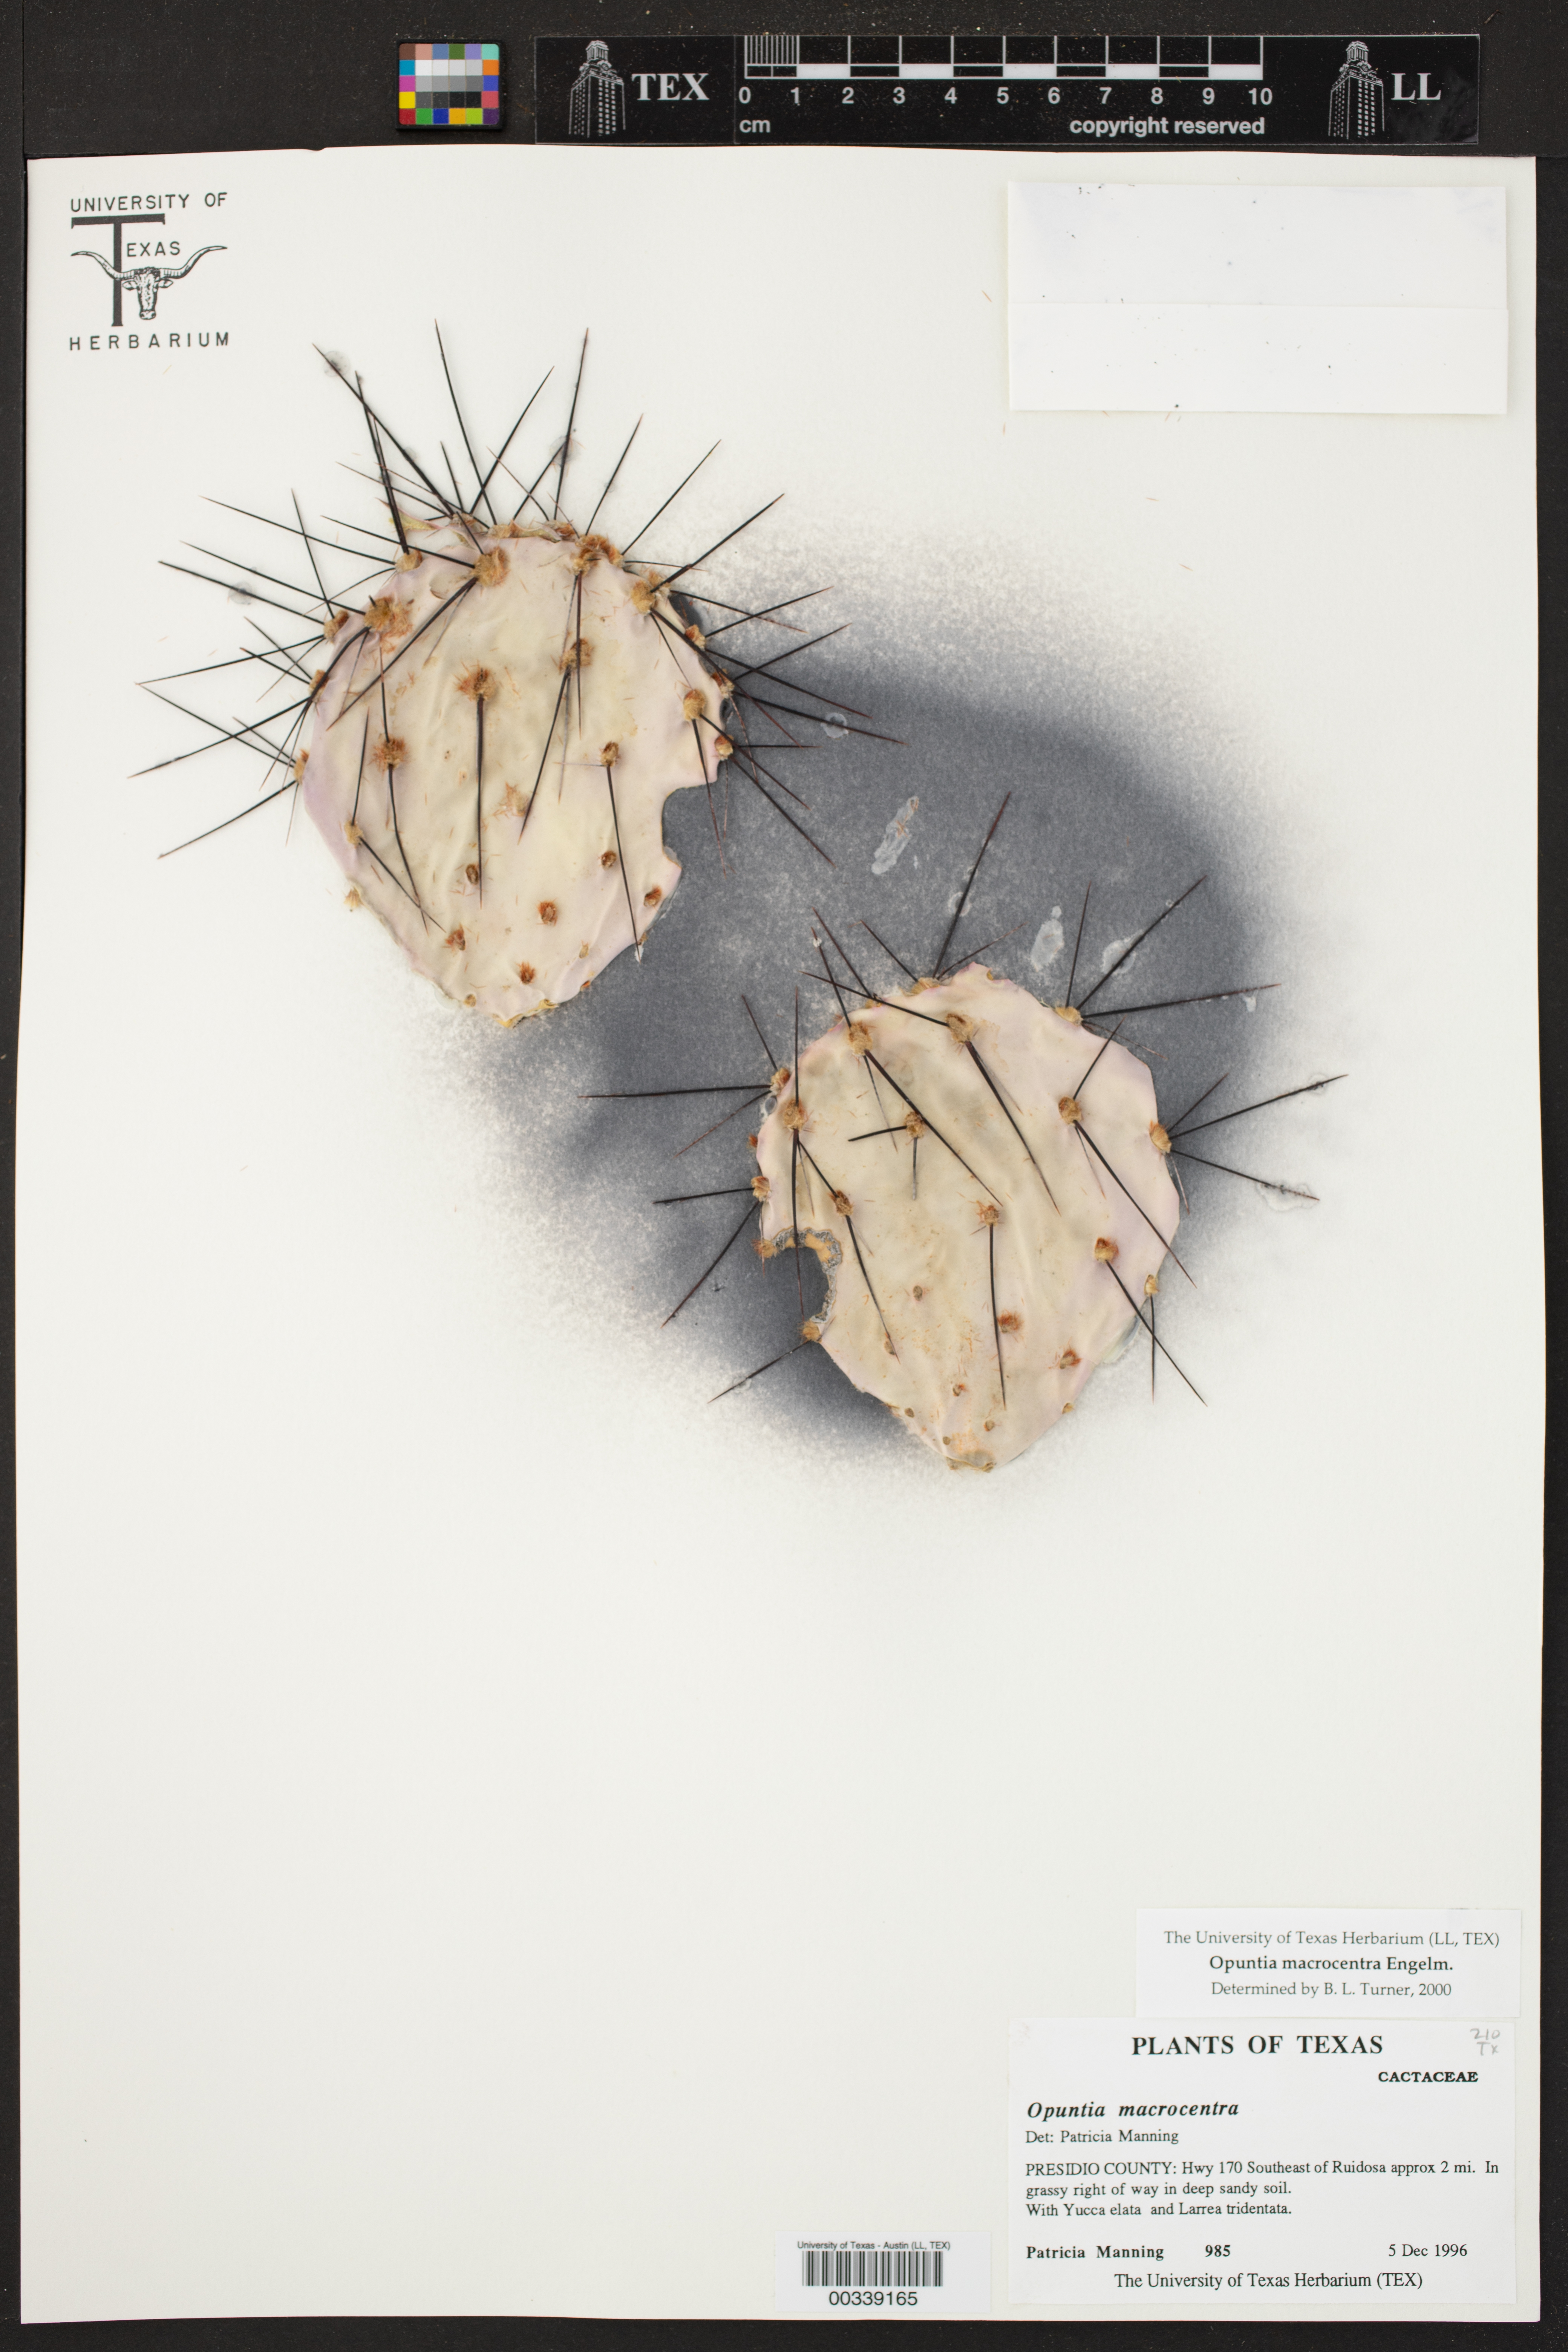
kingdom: Plantae
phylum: Tracheophyta
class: Magnoliopsida
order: Caryophyllales
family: Cactaceae
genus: Opuntia
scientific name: Opuntia macrocentra
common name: Purple prickly-pear
